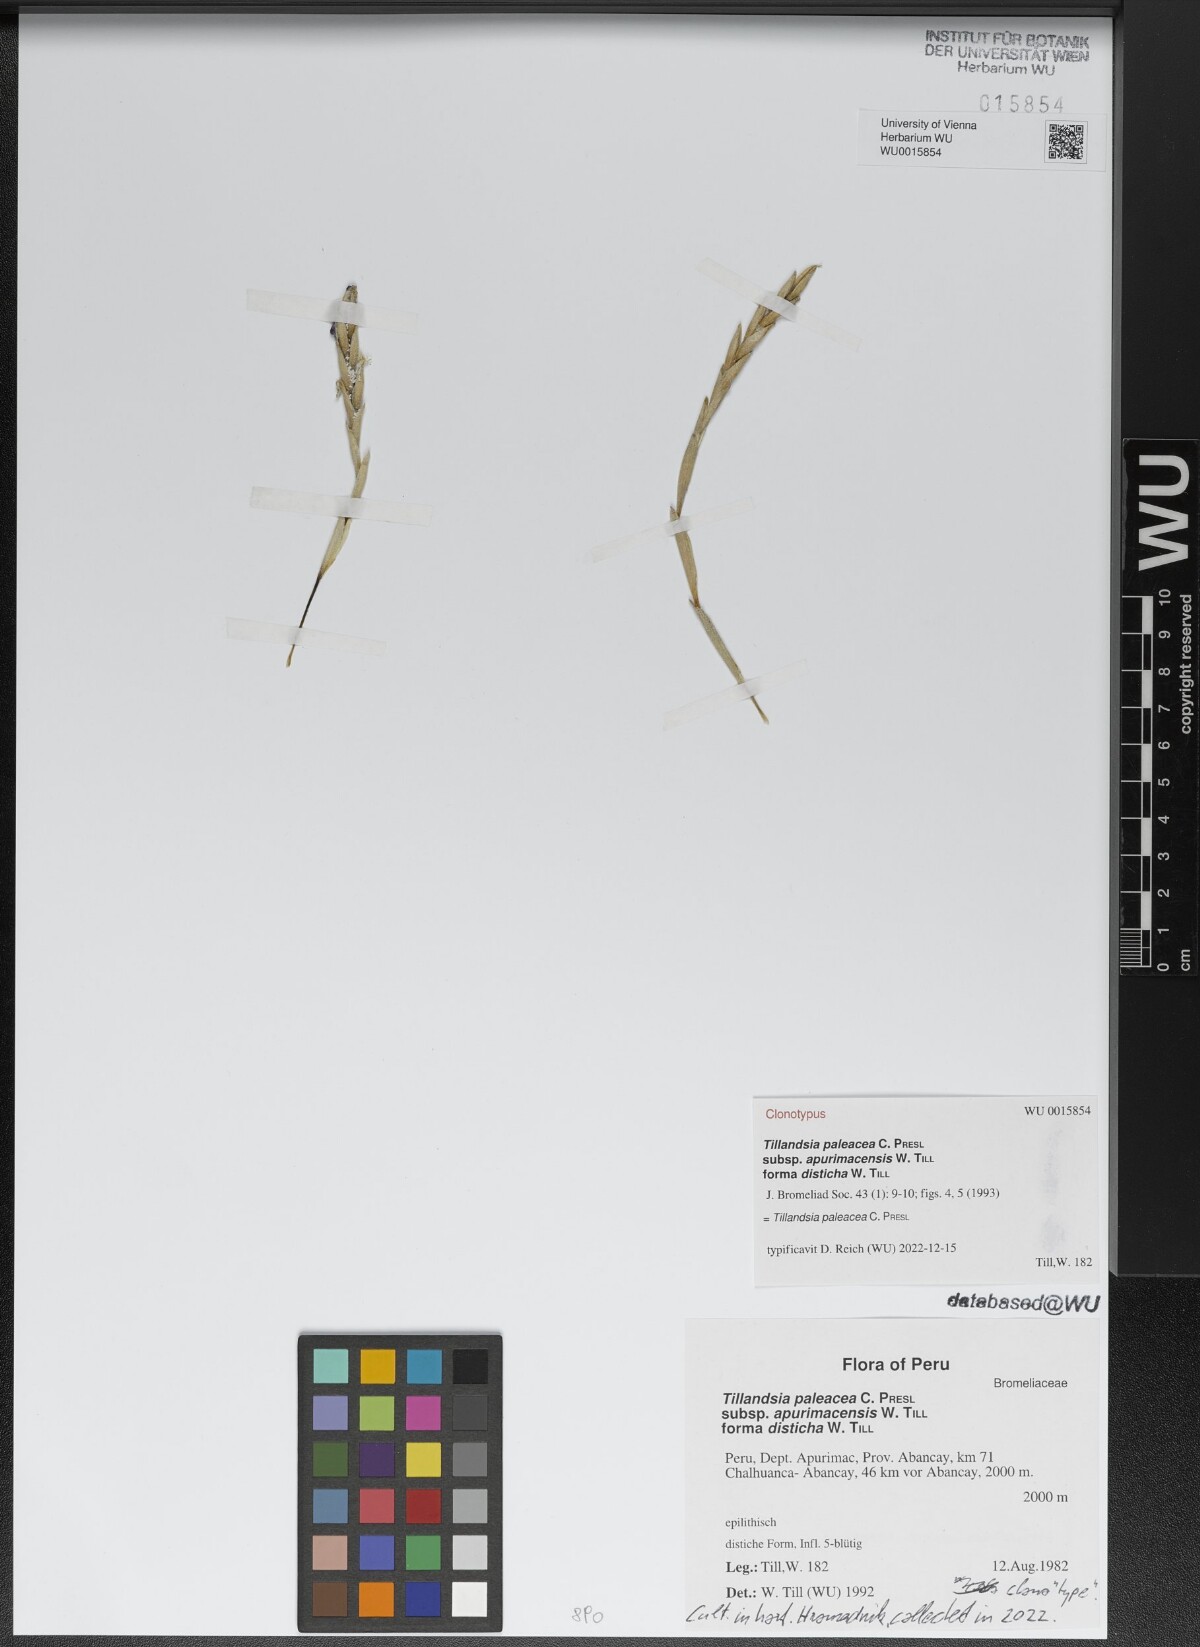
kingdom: Plantae
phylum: Tracheophyta
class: Liliopsida
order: Poales
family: Bromeliaceae
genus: Tillandsia
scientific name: Tillandsia paleacea
